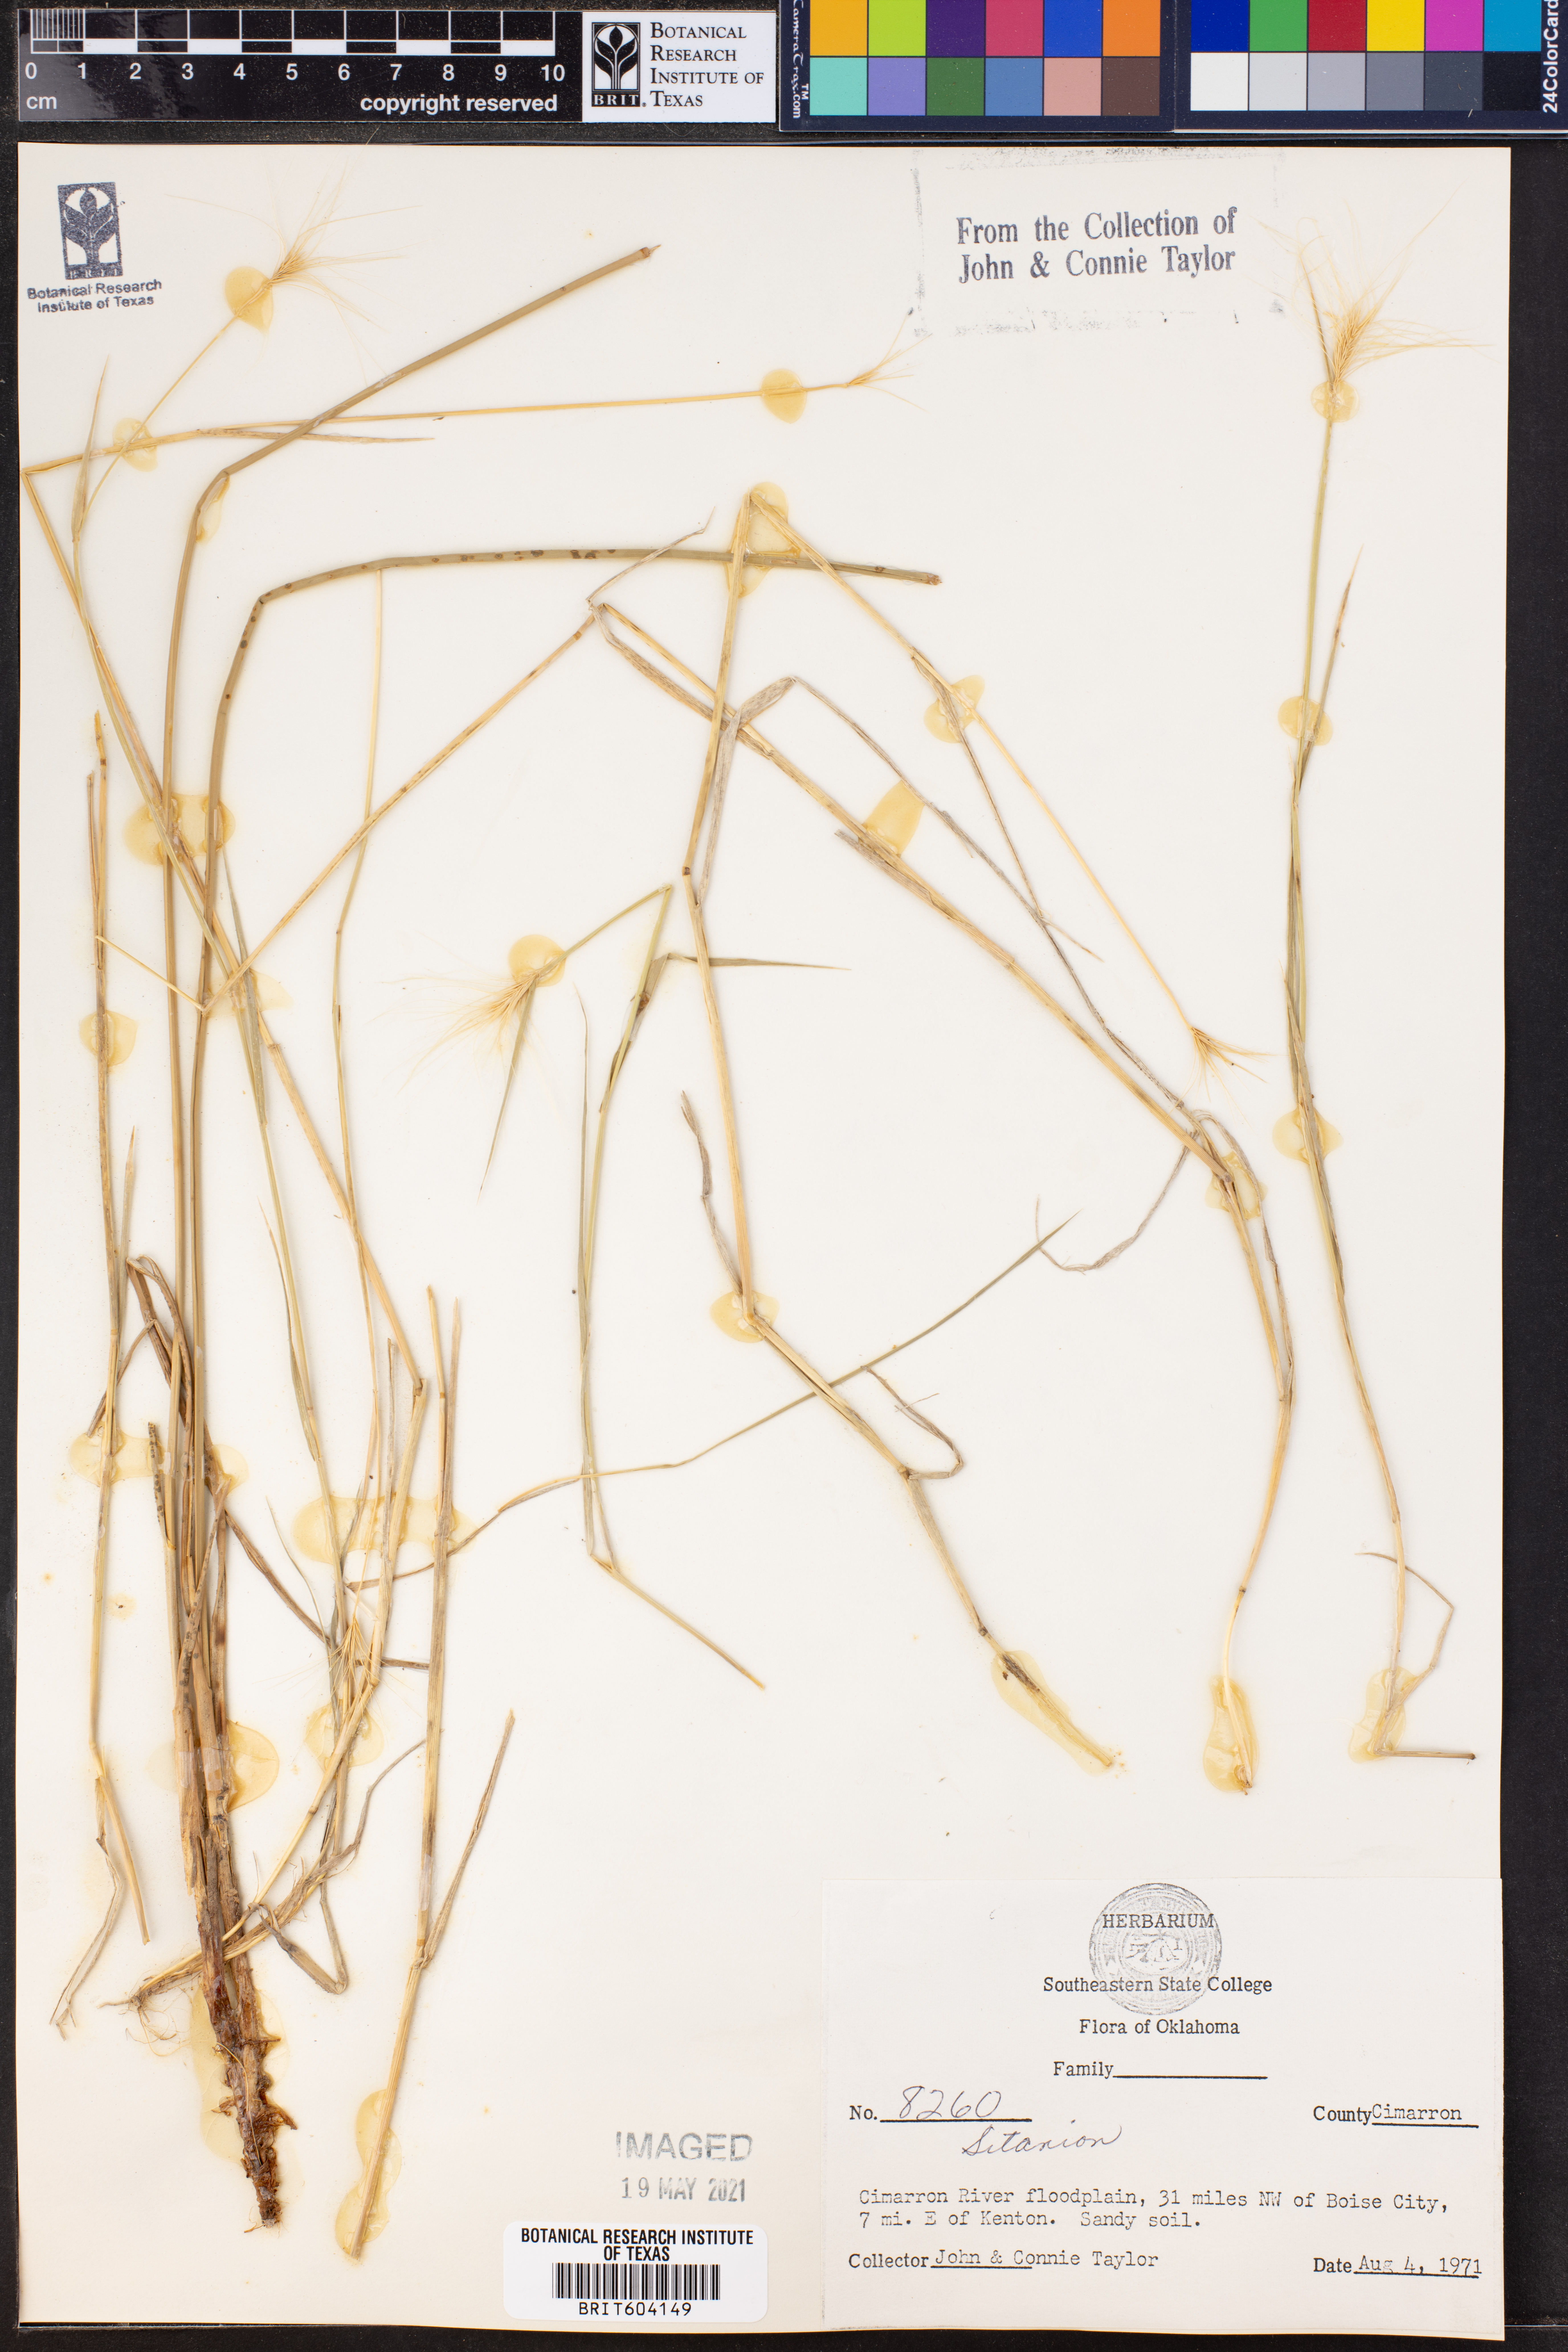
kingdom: Plantae
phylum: Tracheophyta
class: Liliopsida
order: Poales
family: Poaceae
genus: Elymus
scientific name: Elymus
